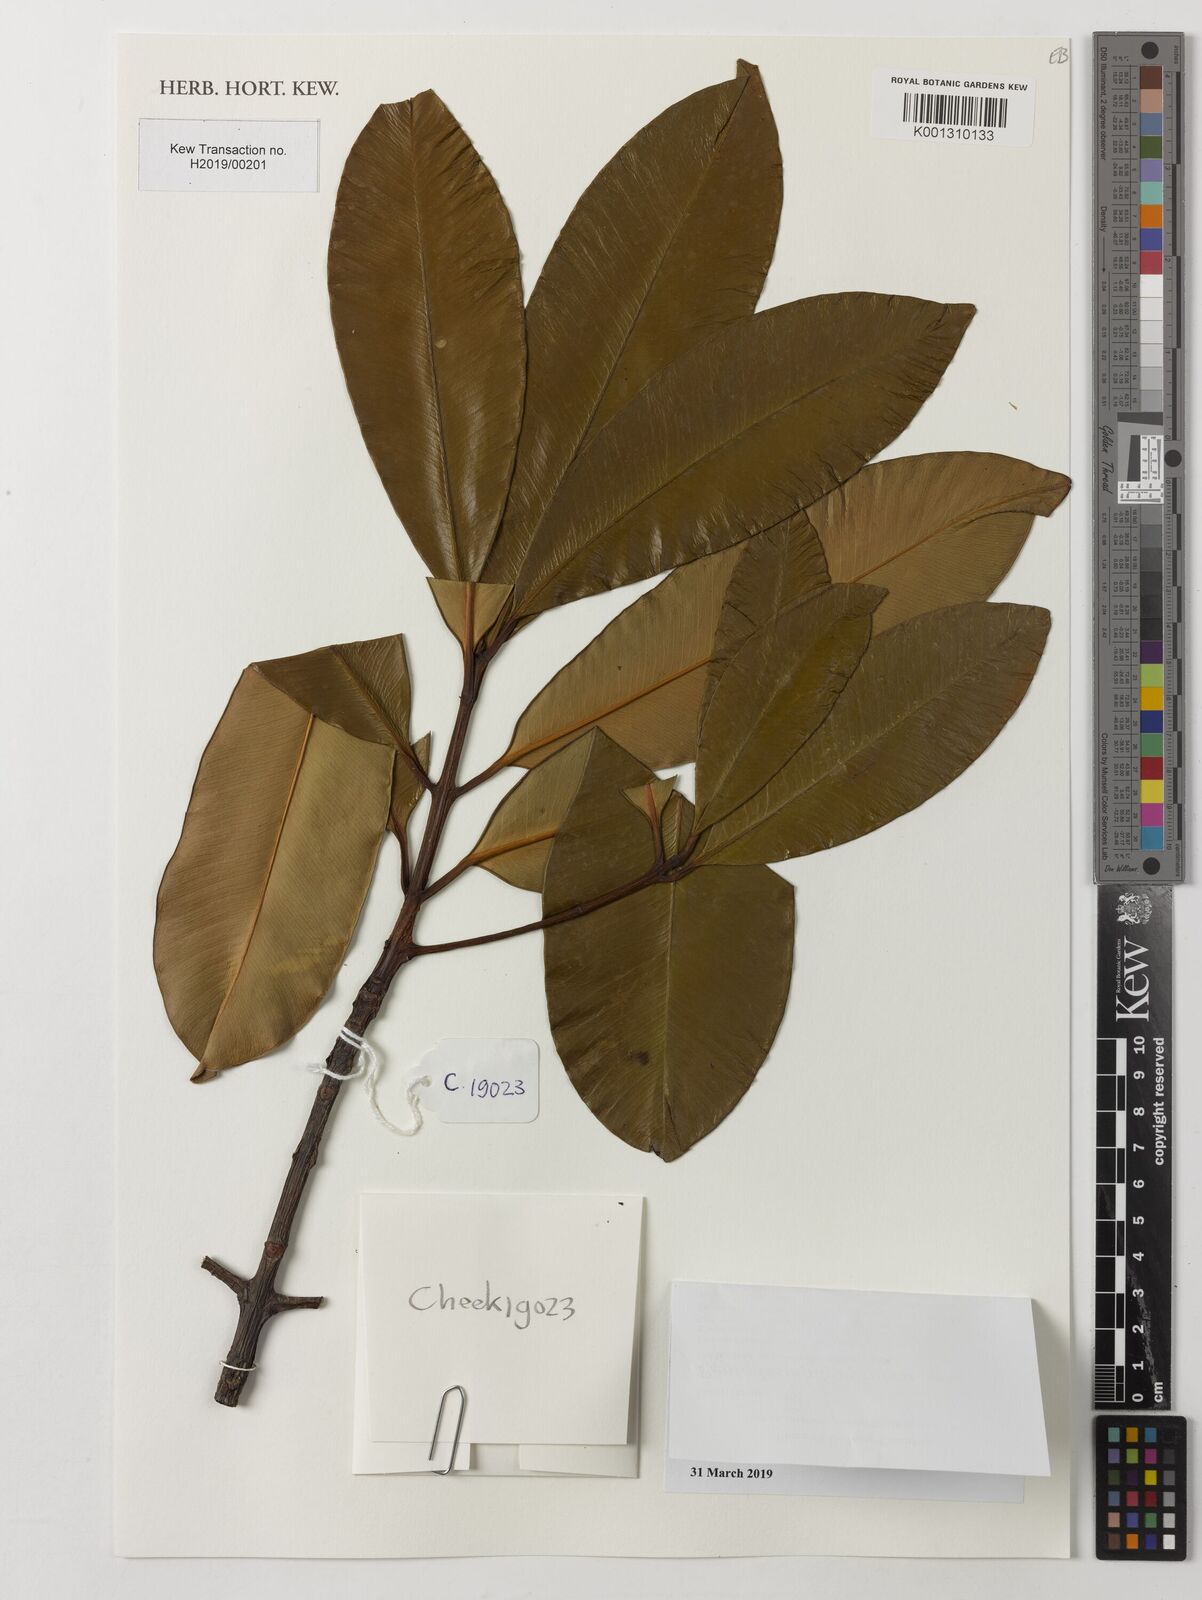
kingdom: Plantae
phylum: Tracheophyta
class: Magnoliopsida
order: Malpighiales
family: Clusiaceae
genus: Pentadesma
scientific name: Pentadesma butyracea
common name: Buttertree
